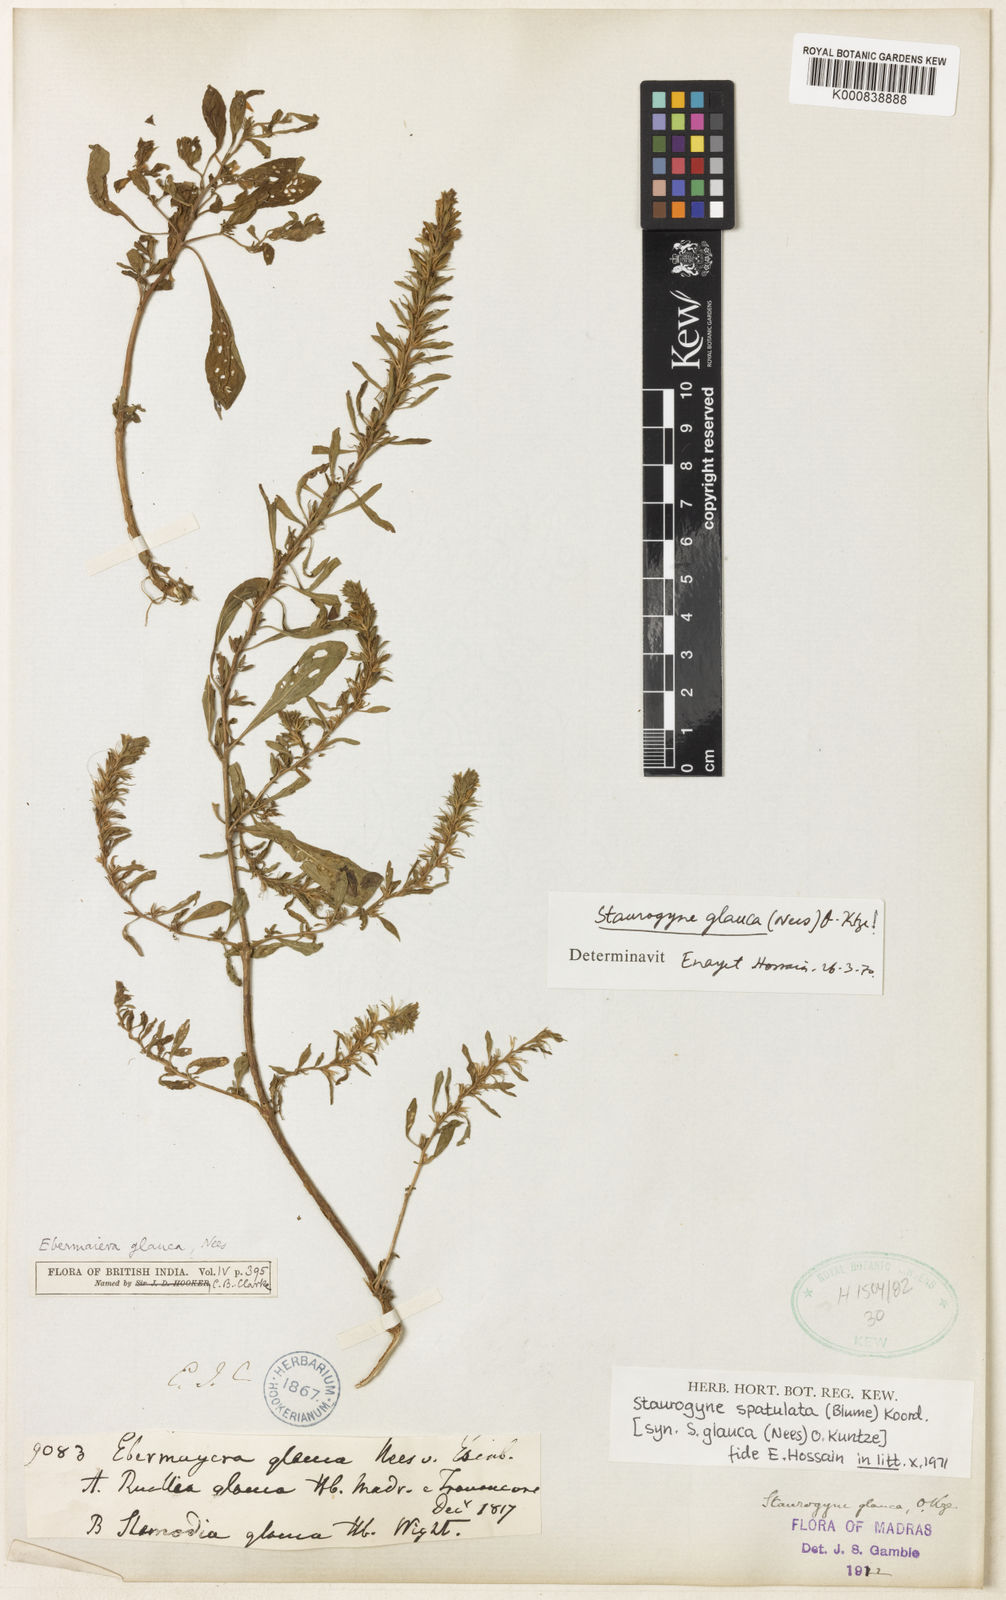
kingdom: Plantae
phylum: Tracheophyta
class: Magnoliopsida
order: Lamiales
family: Acanthaceae
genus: Staurogyne
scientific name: Staurogyne spathulata
